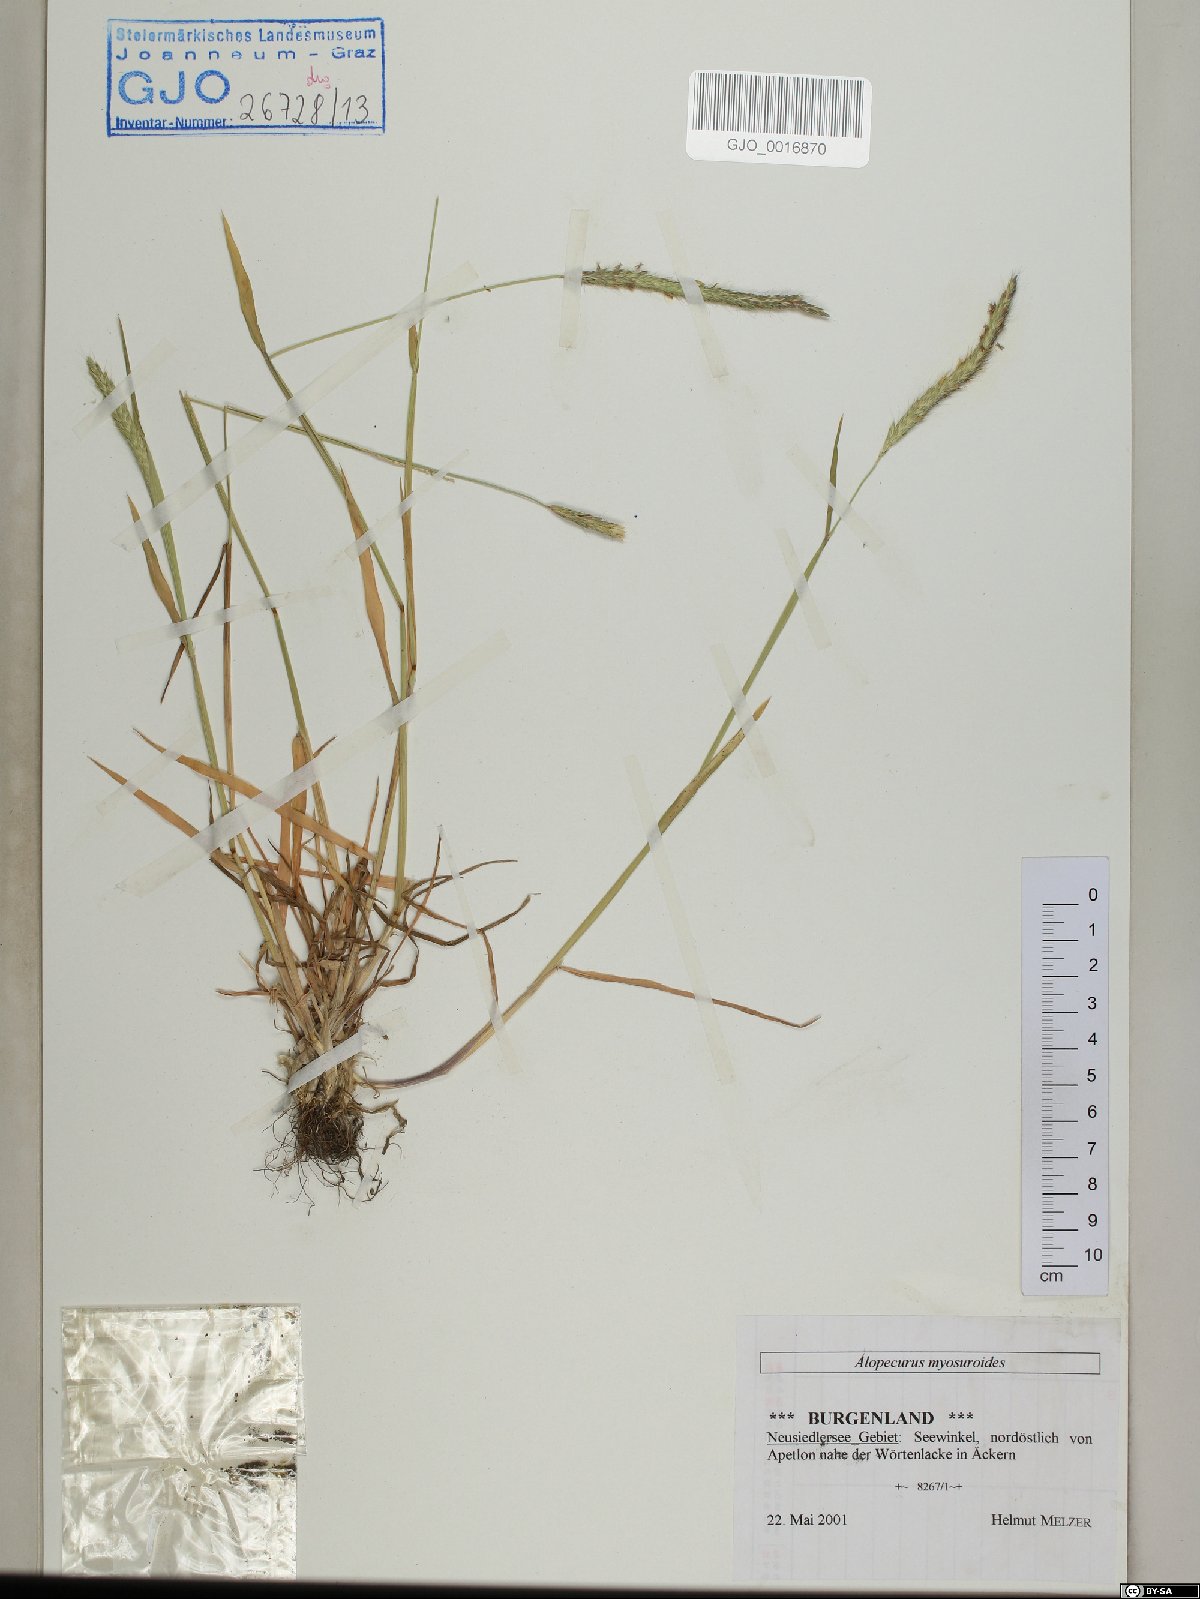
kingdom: Plantae
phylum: Tracheophyta
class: Liliopsida
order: Poales
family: Poaceae
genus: Alopecurus
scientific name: Alopecurus myosuroides
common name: Black-grass
